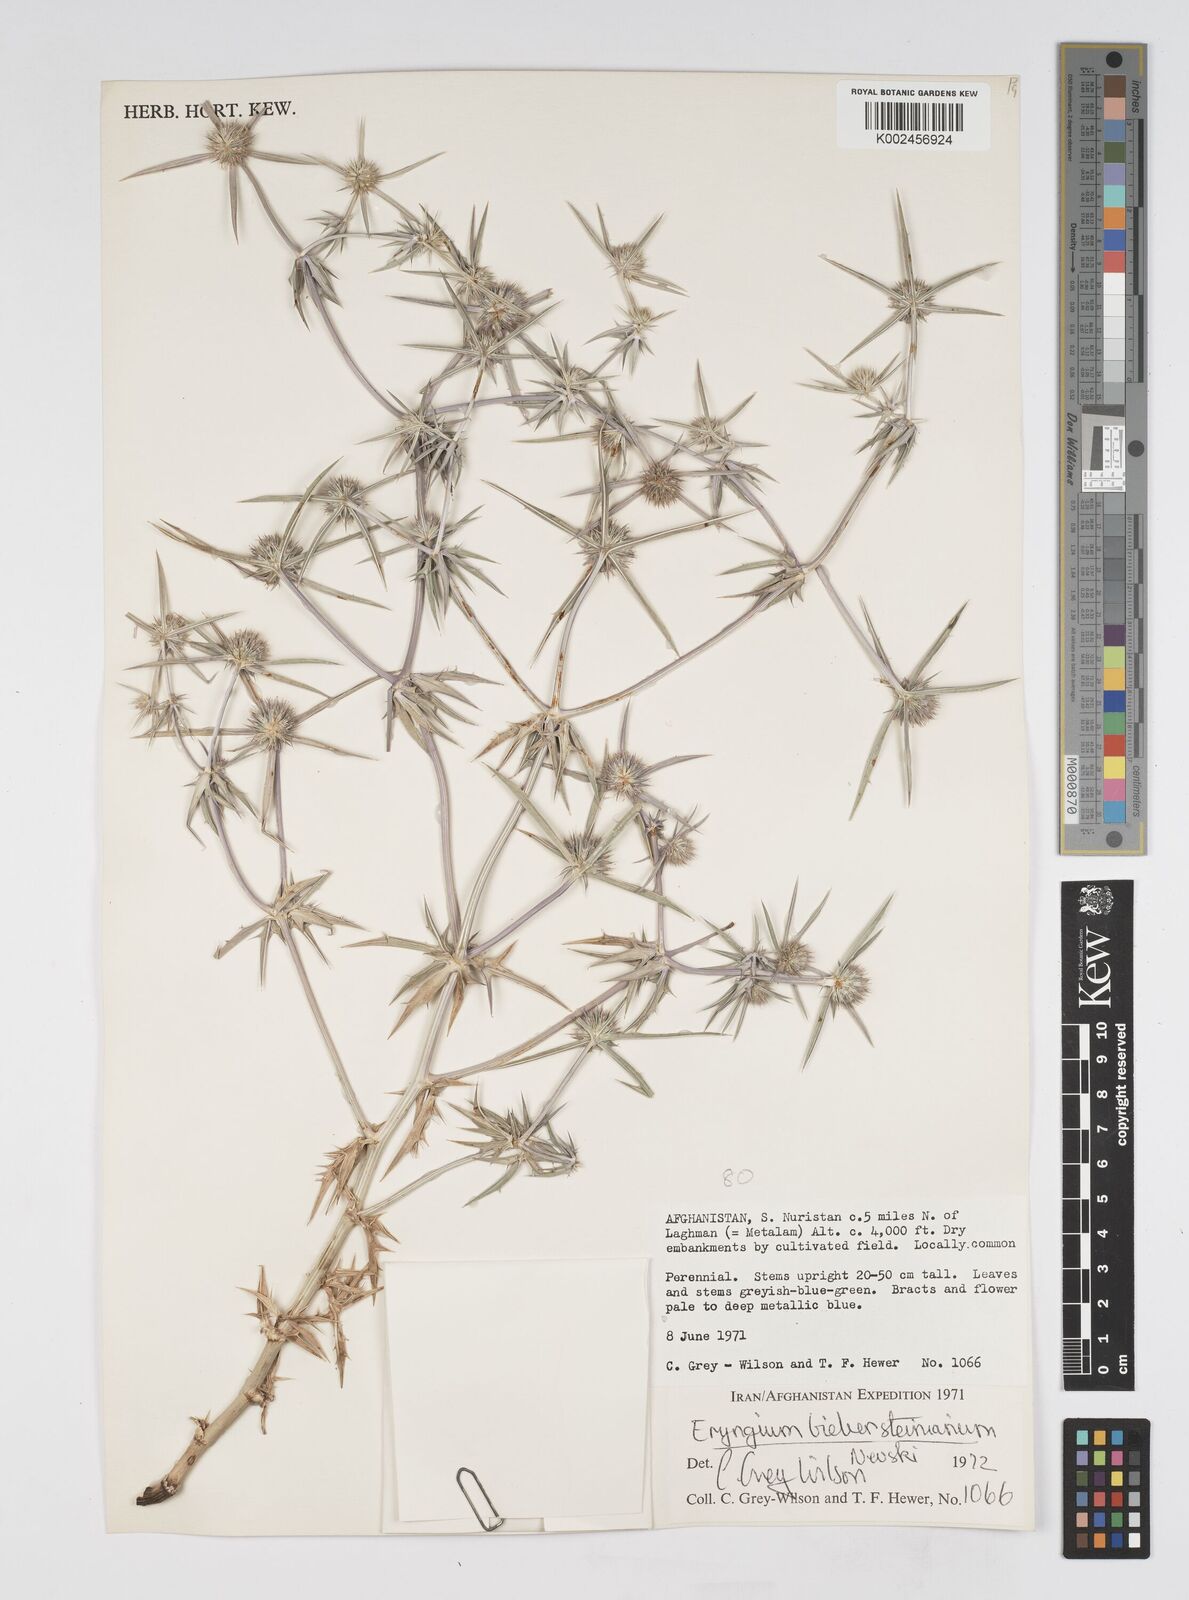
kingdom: Plantae
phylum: Tracheophyta
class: Magnoliopsida
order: Apiales
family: Apiaceae
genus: Eryngium
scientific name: Eryngium caeruleum
